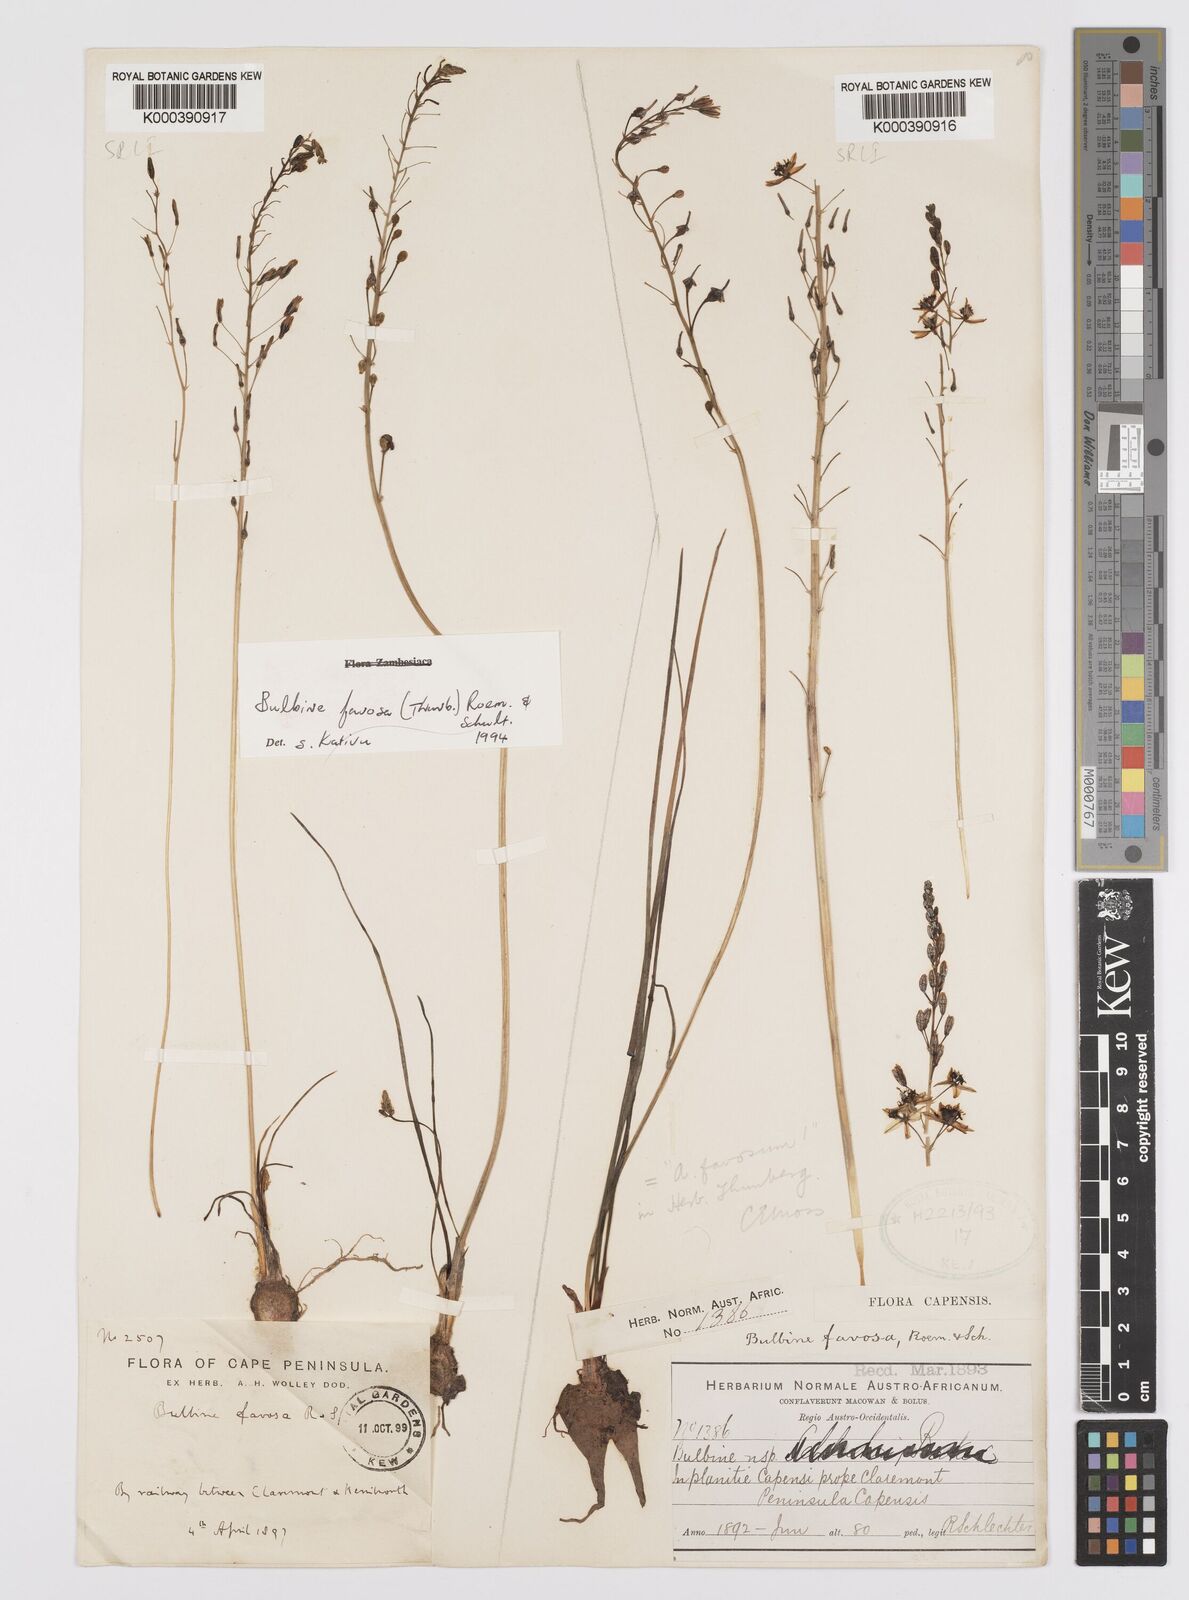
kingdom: Plantae
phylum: Tracheophyta
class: Liliopsida
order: Asparagales
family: Asphodelaceae
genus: Bulbine
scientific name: Bulbine favosa
